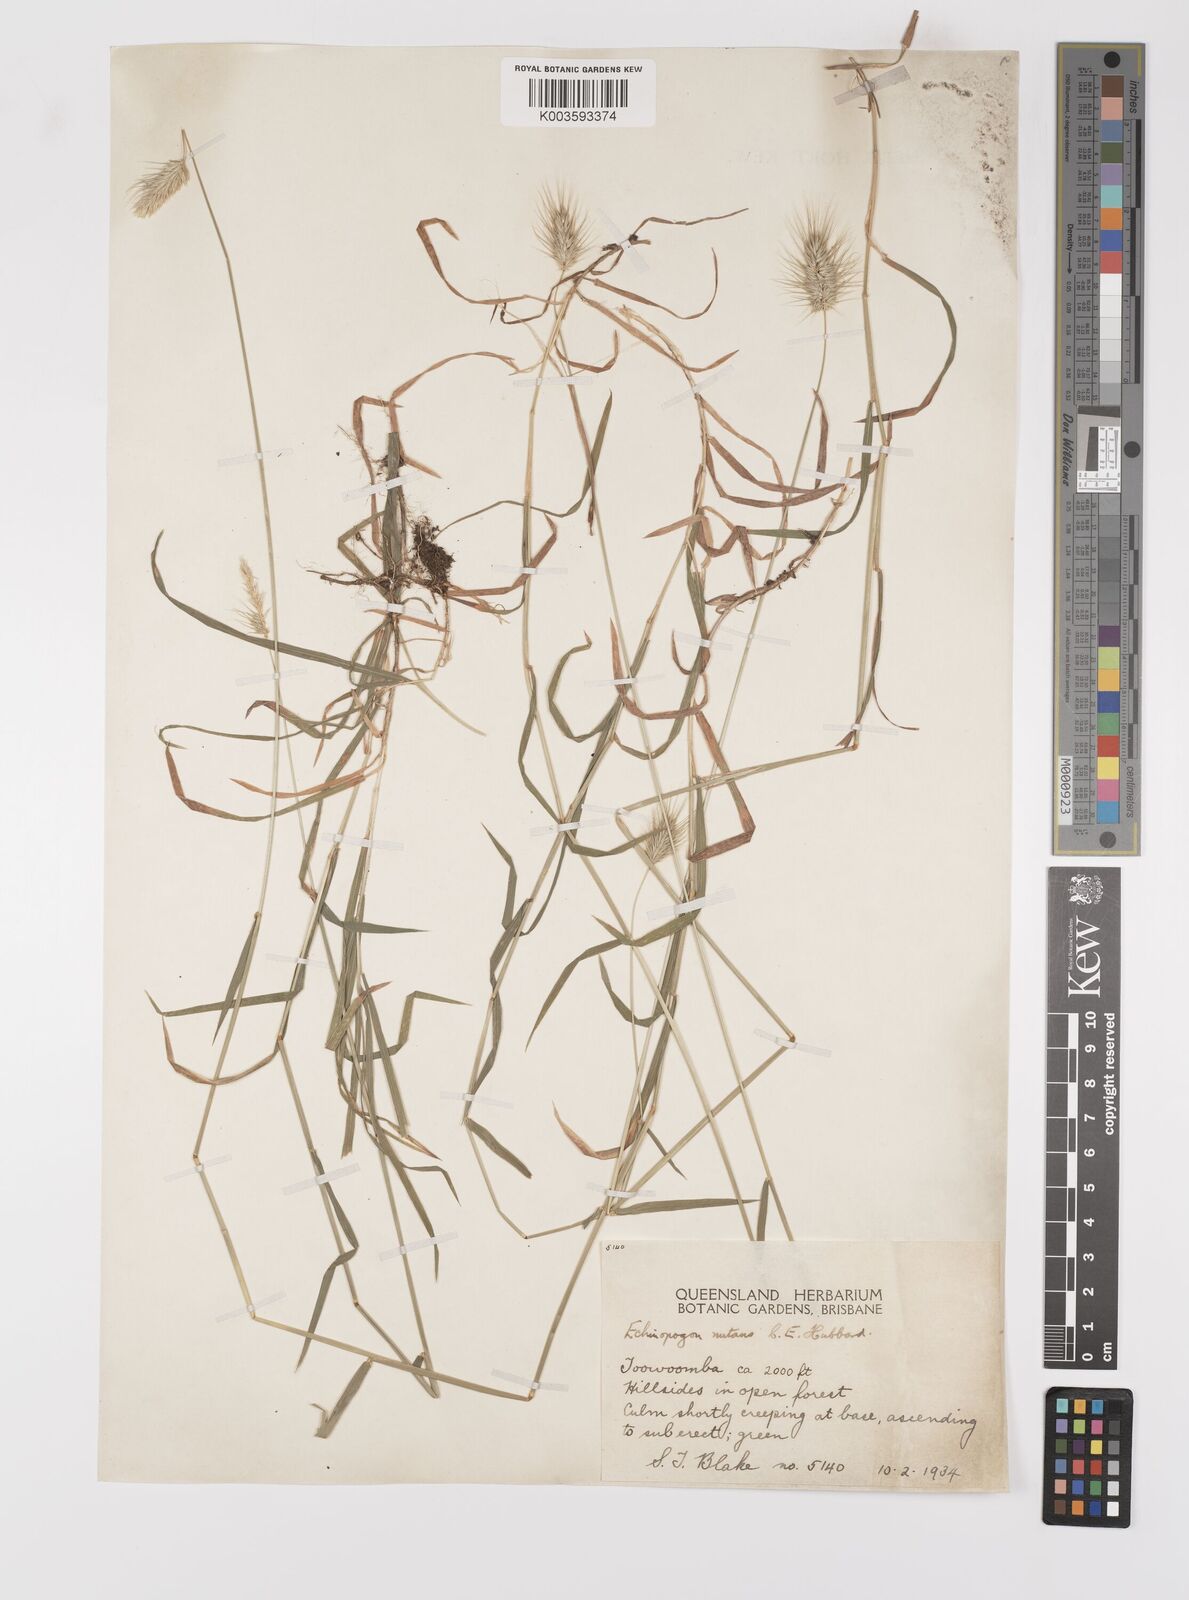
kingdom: Plantae
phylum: Tracheophyta
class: Liliopsida
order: Poales
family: Poaceae
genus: Echinopogon
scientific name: Echinopogon nutans
